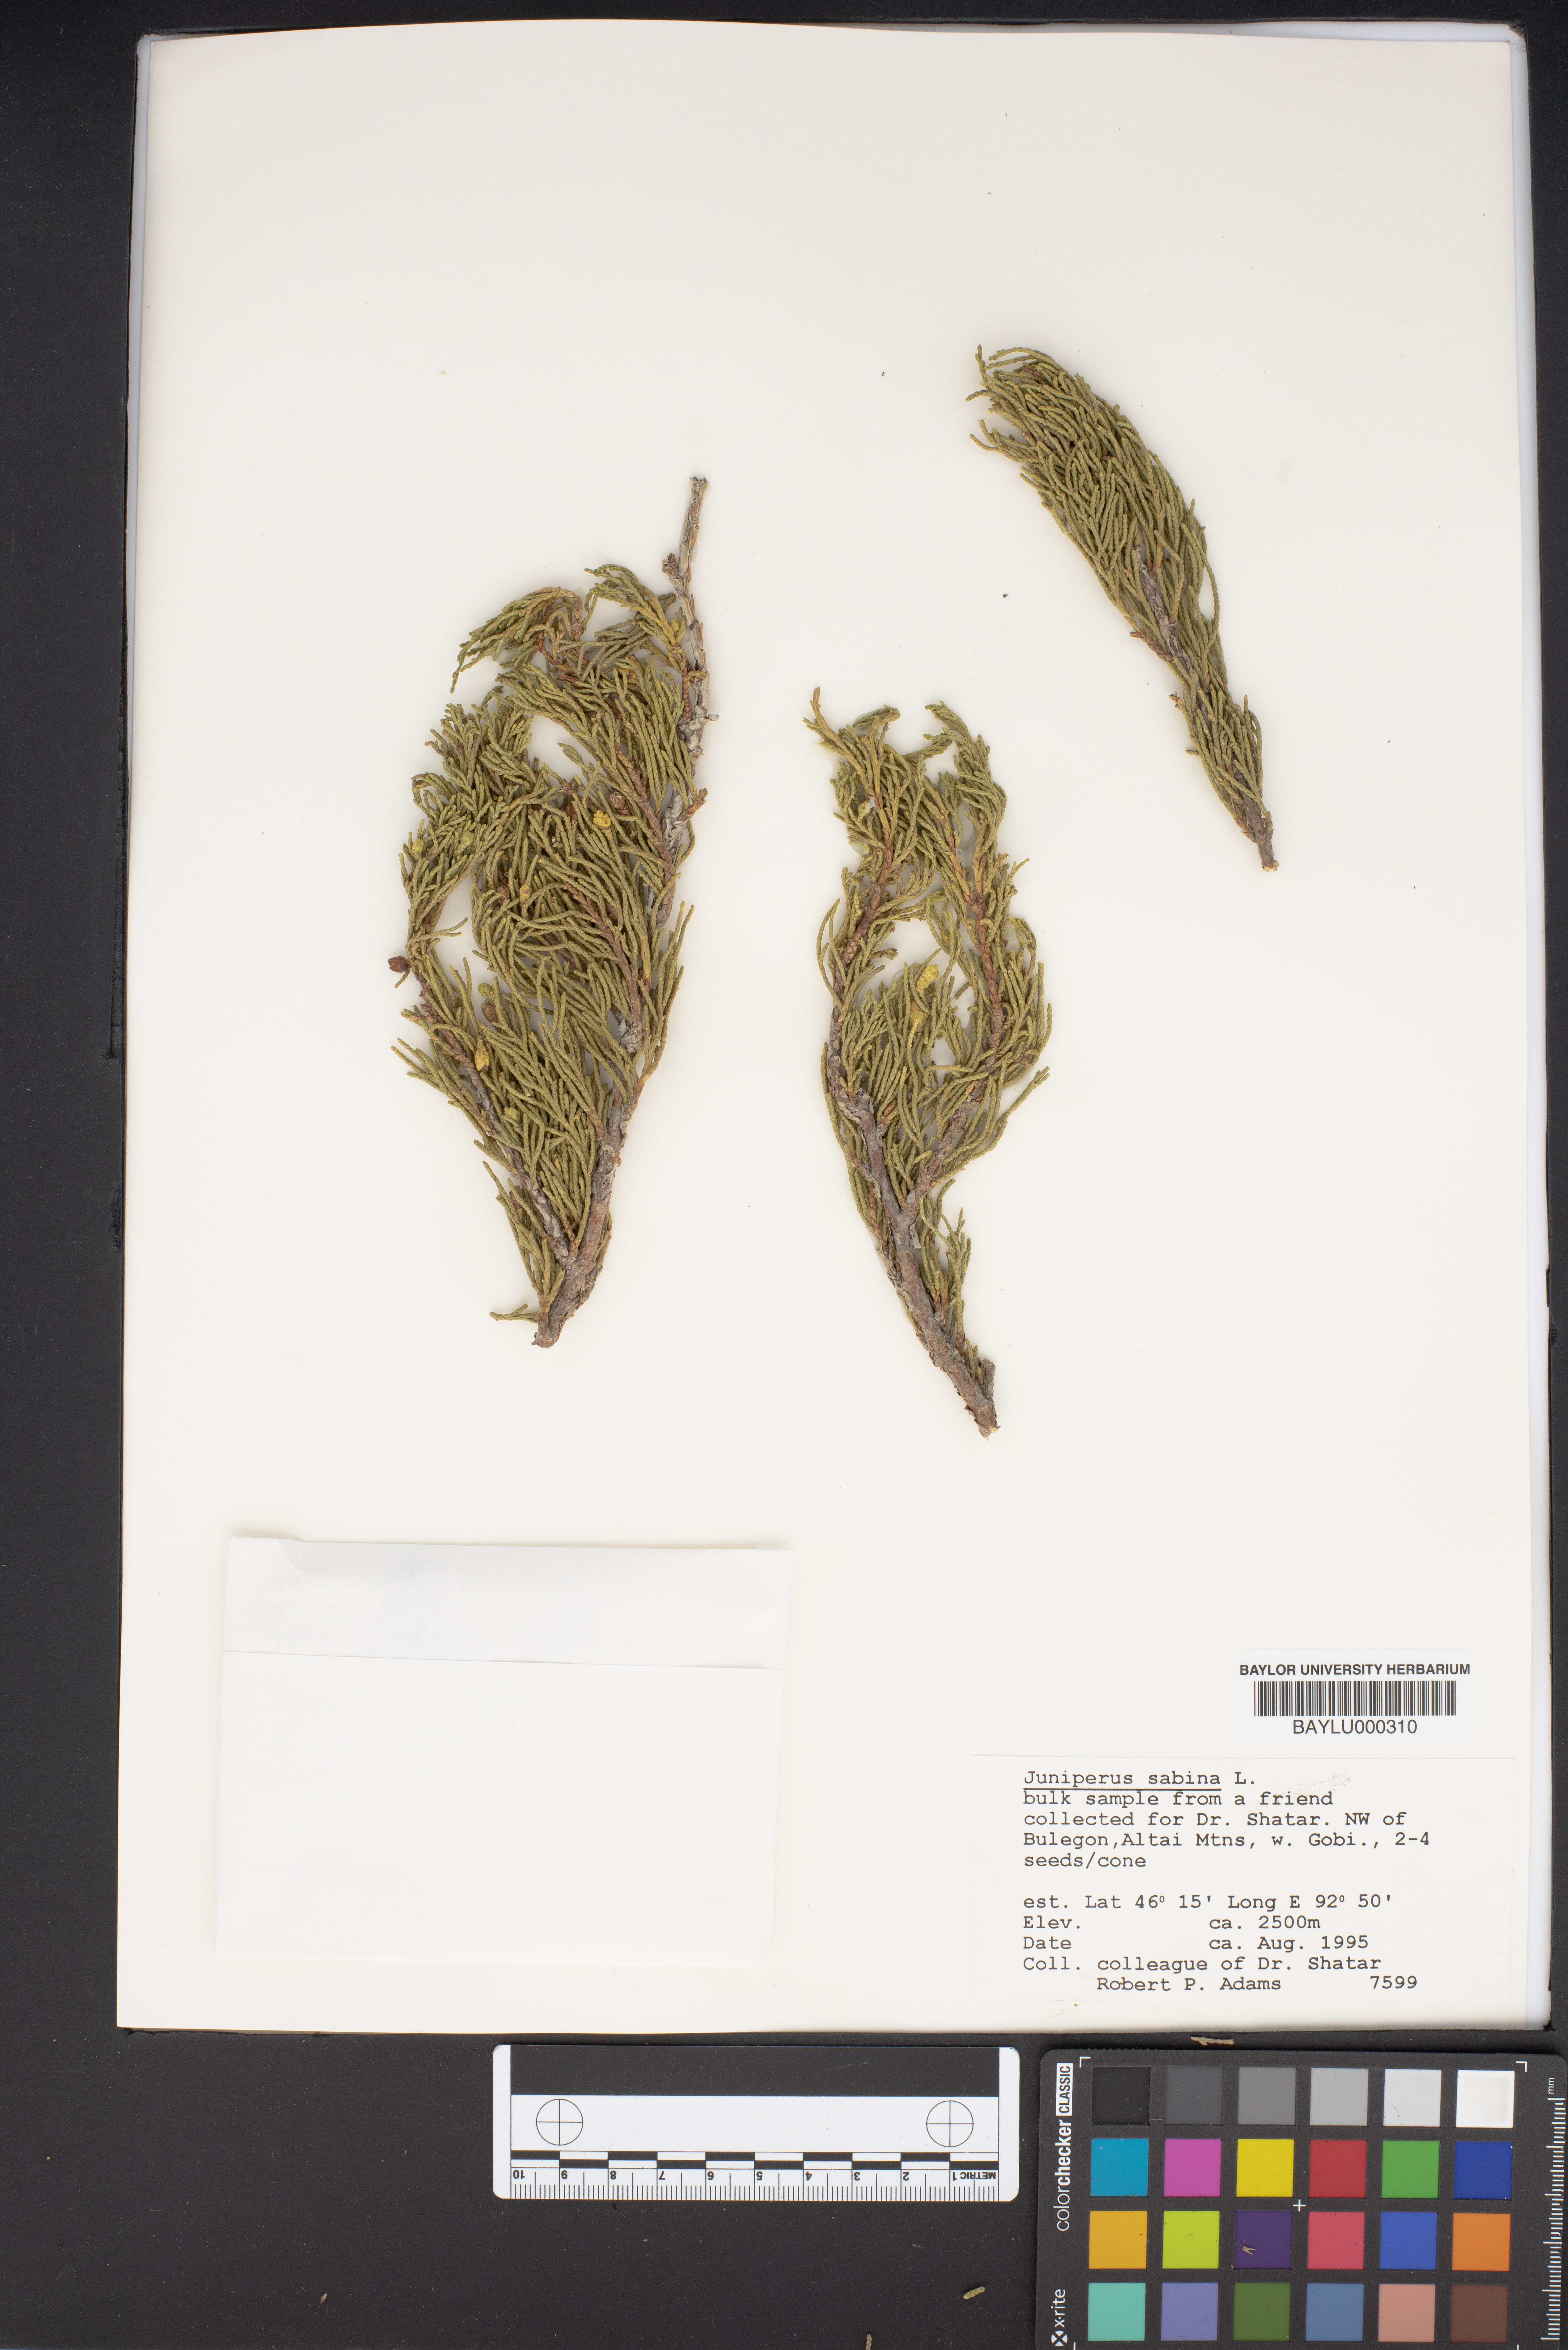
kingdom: Plantae
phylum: Tracheophyta
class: Pinopsida
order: Pinales
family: Cupressaceae
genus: Juniperus
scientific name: Juniperus sabina
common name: Savin
